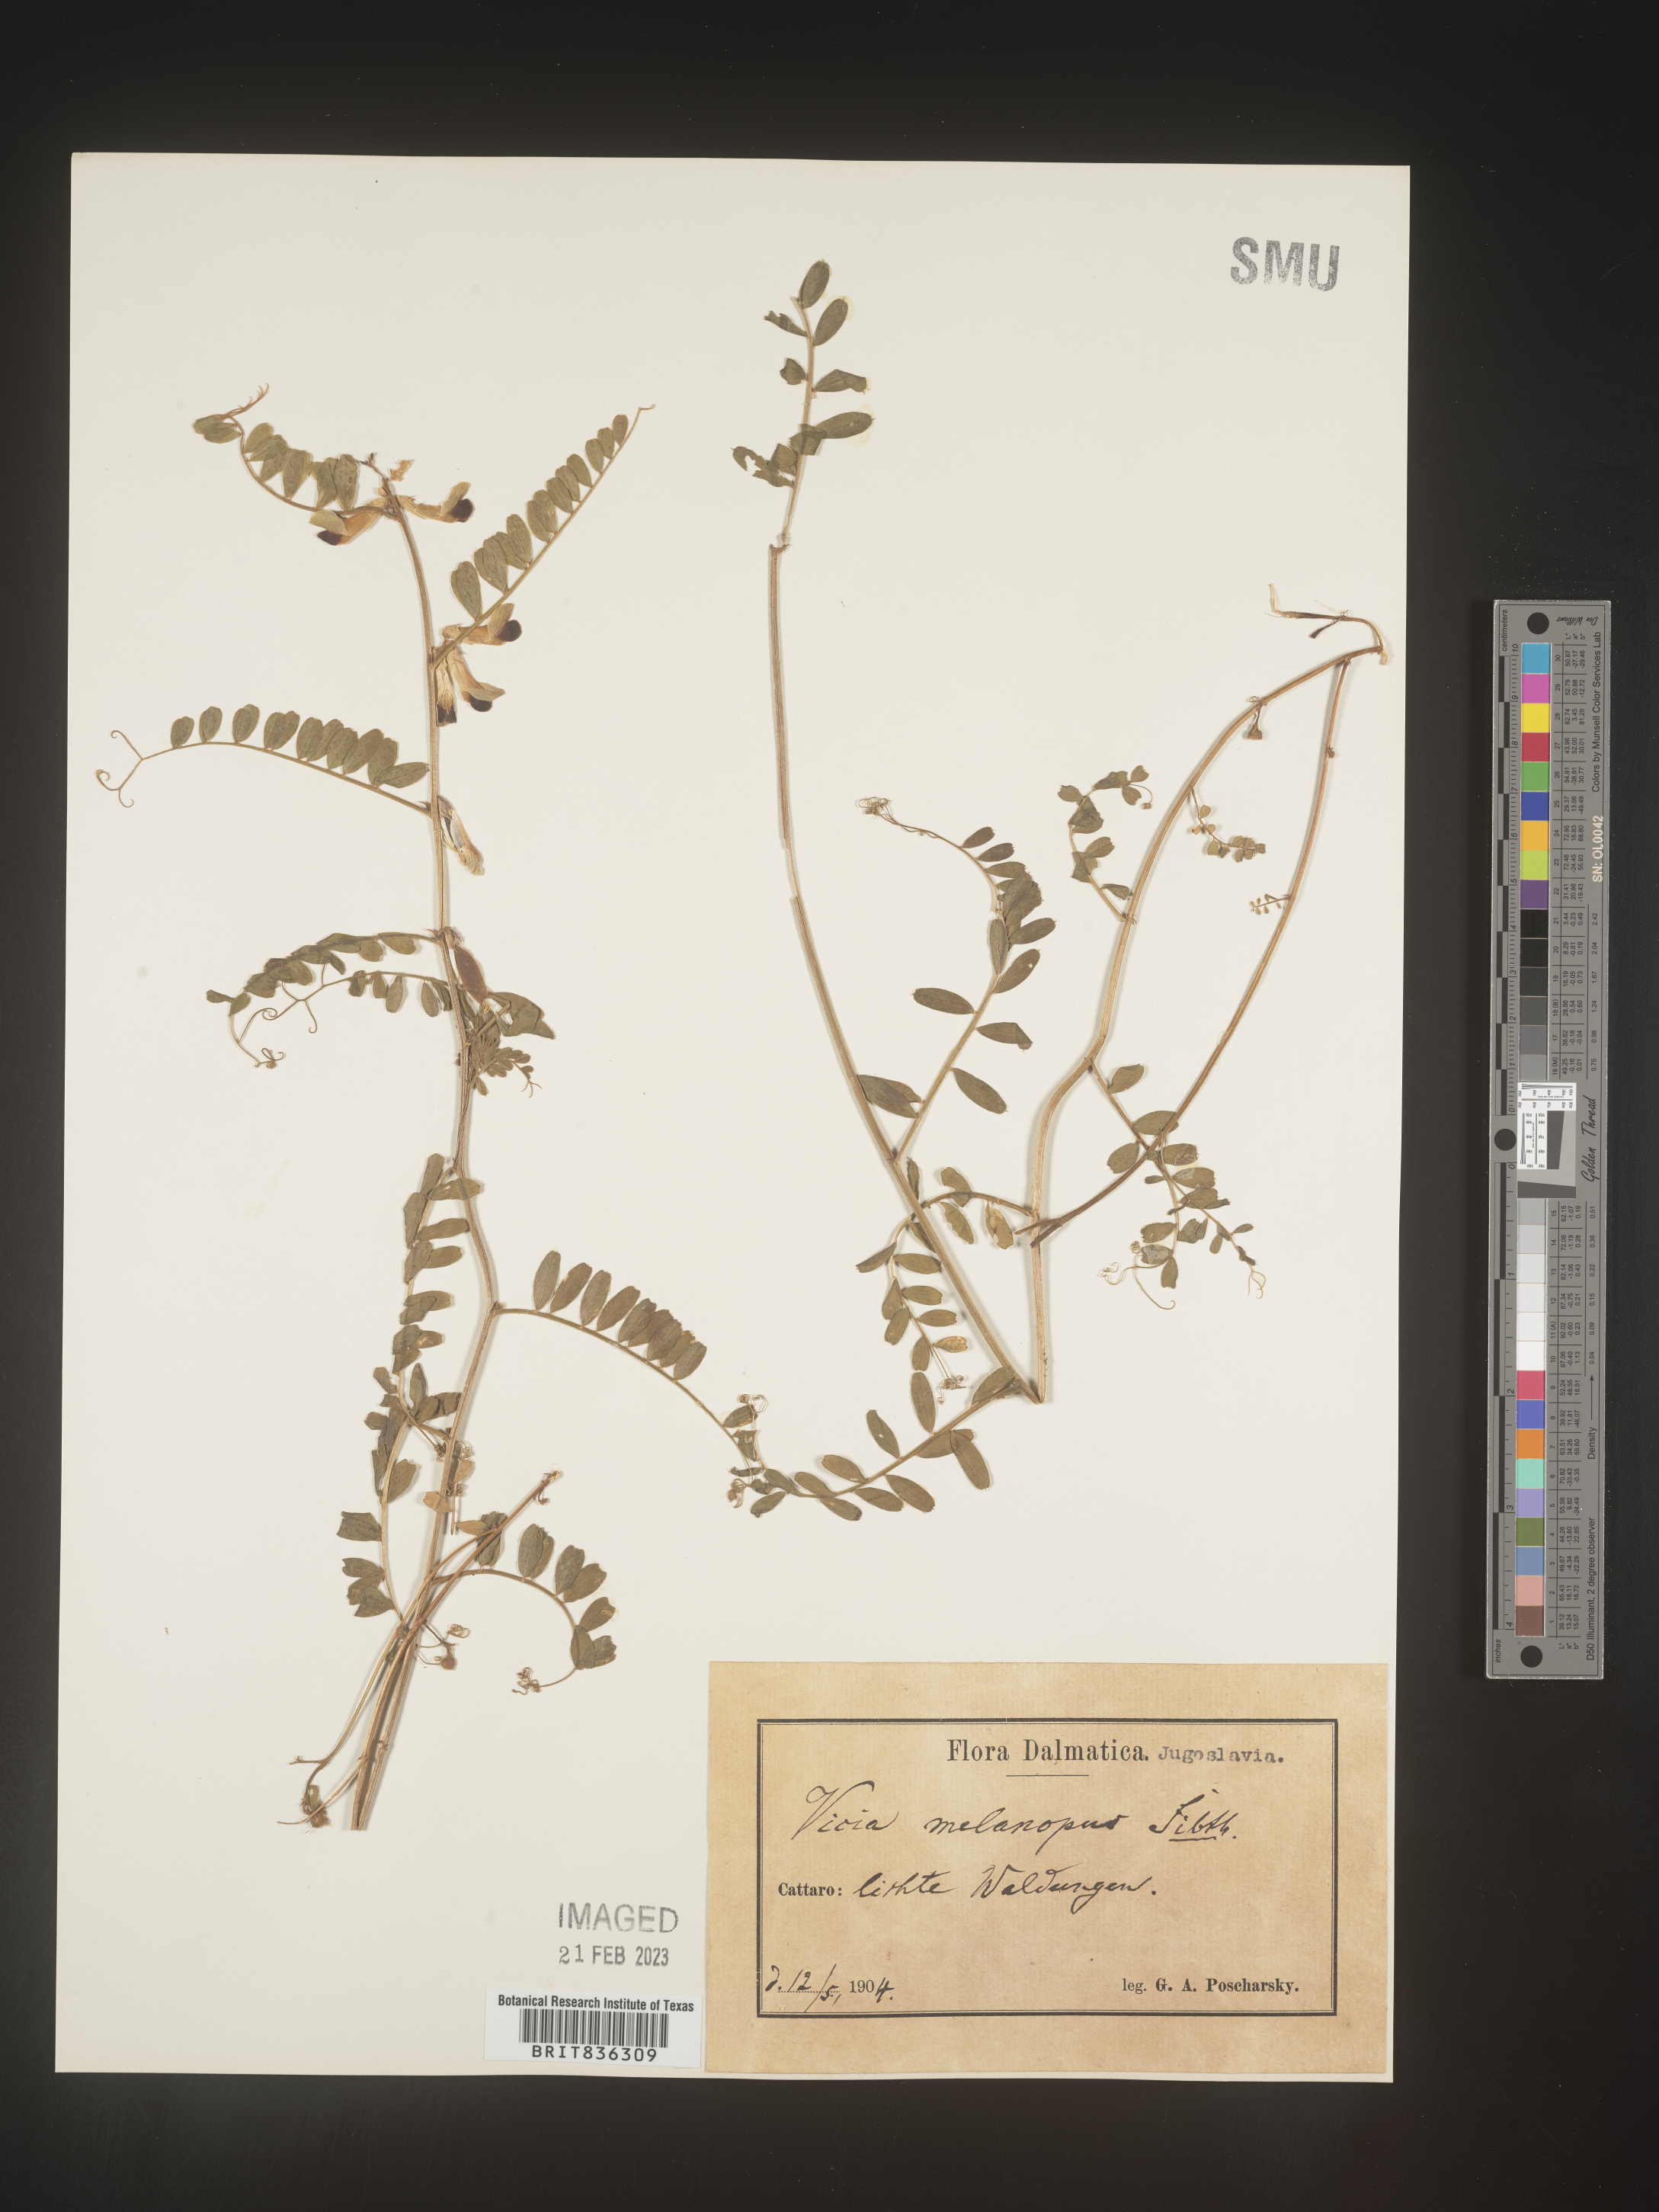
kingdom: Plantae
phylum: Tracheophyta
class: Magnoliopsida
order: Fabales
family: Fabaceae
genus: Vicia
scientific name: Vicia
